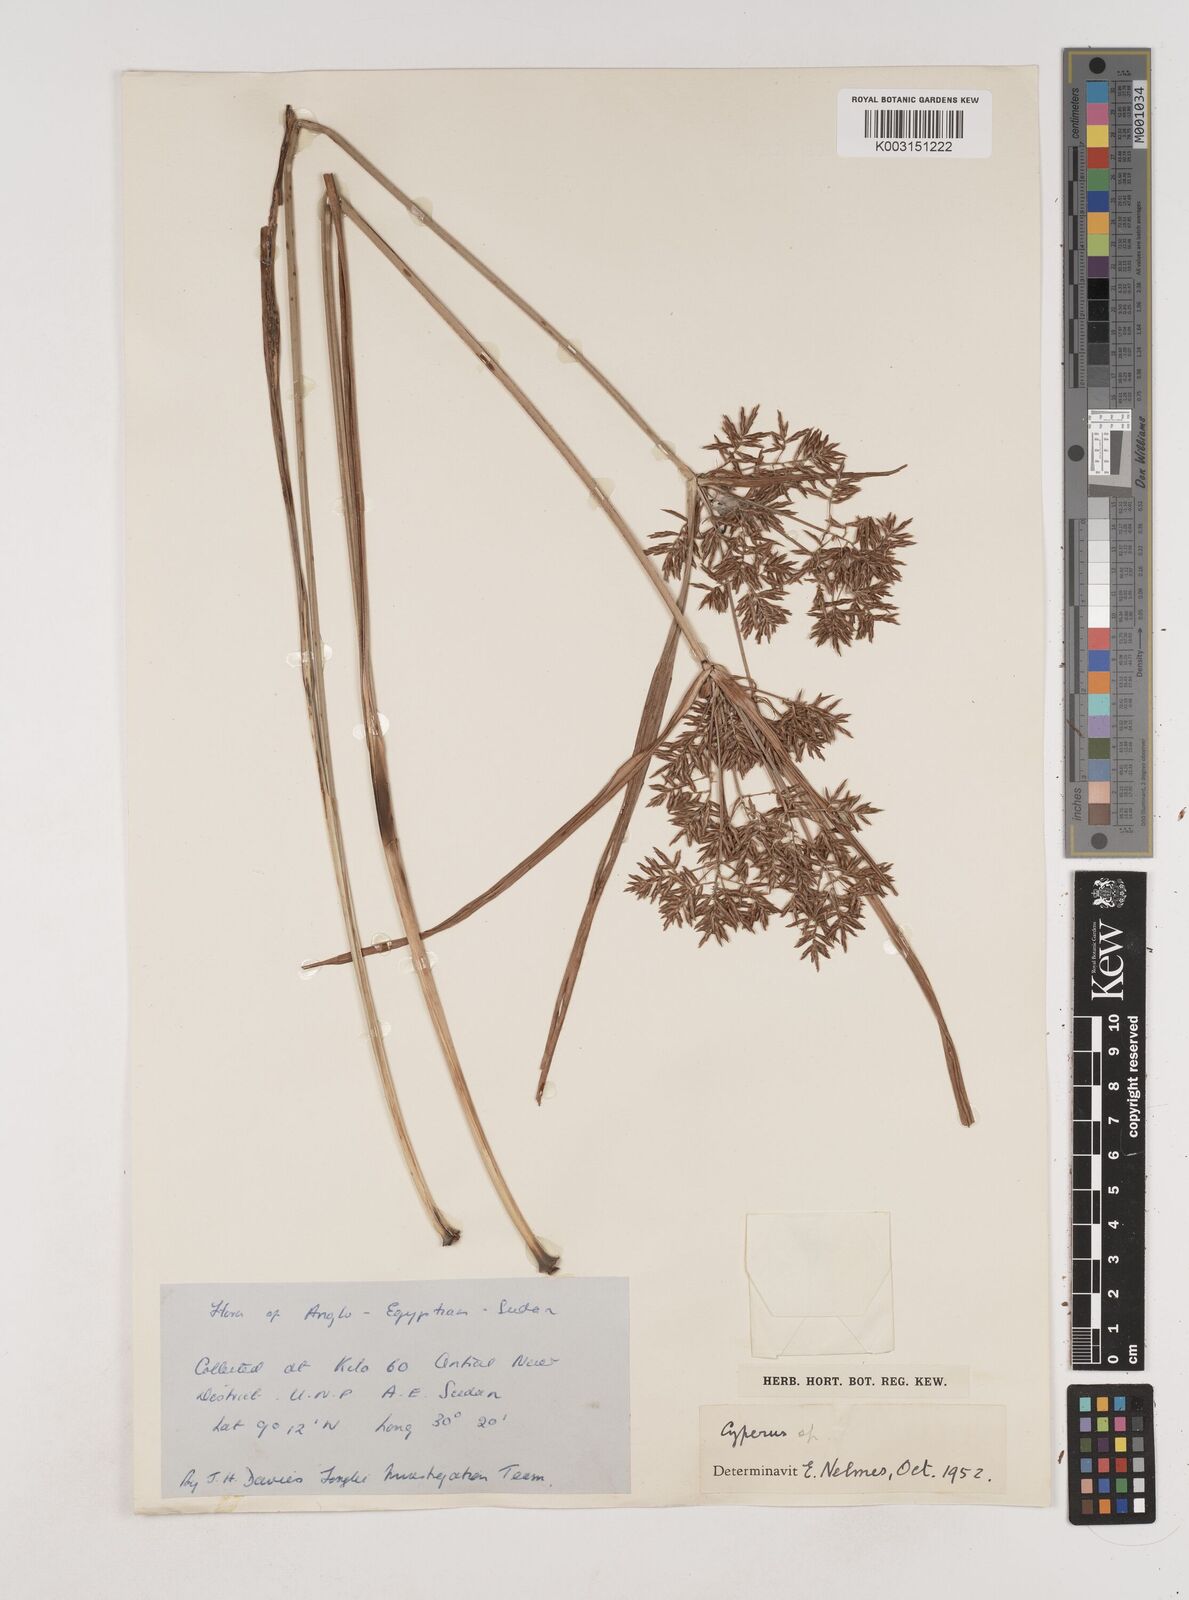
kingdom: Plantae
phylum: Tracheophyta
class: Liliopsida
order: Poales
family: Cyperaceae
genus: Cyperus
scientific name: Cyperus
